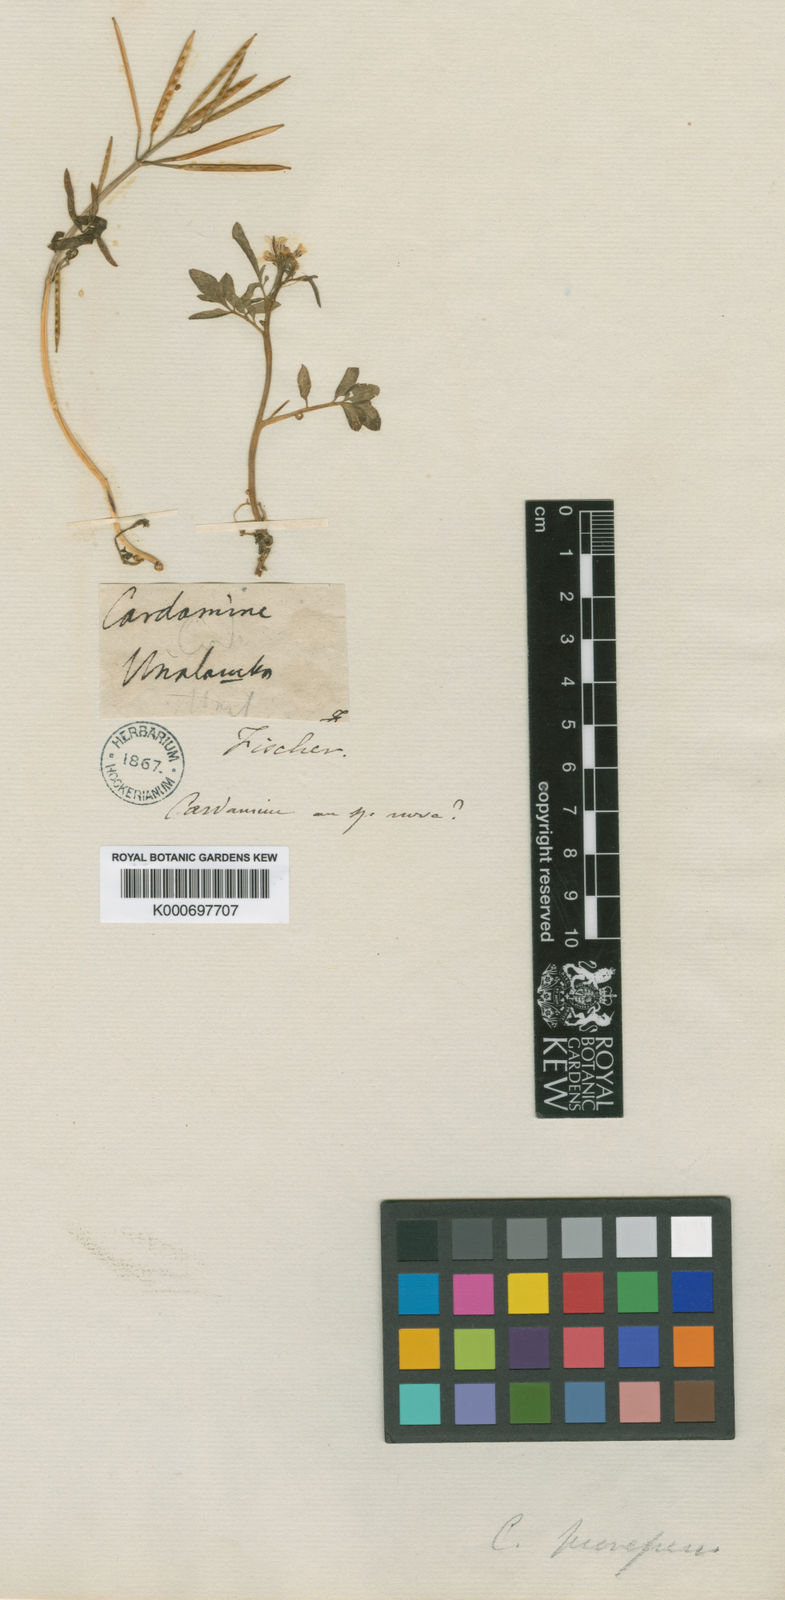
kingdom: Plantae
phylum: Tracheophyta
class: Magnoliopsida
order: Brassicales
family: Brassicaceae
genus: Cardamine
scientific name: Cardamine prorepens
